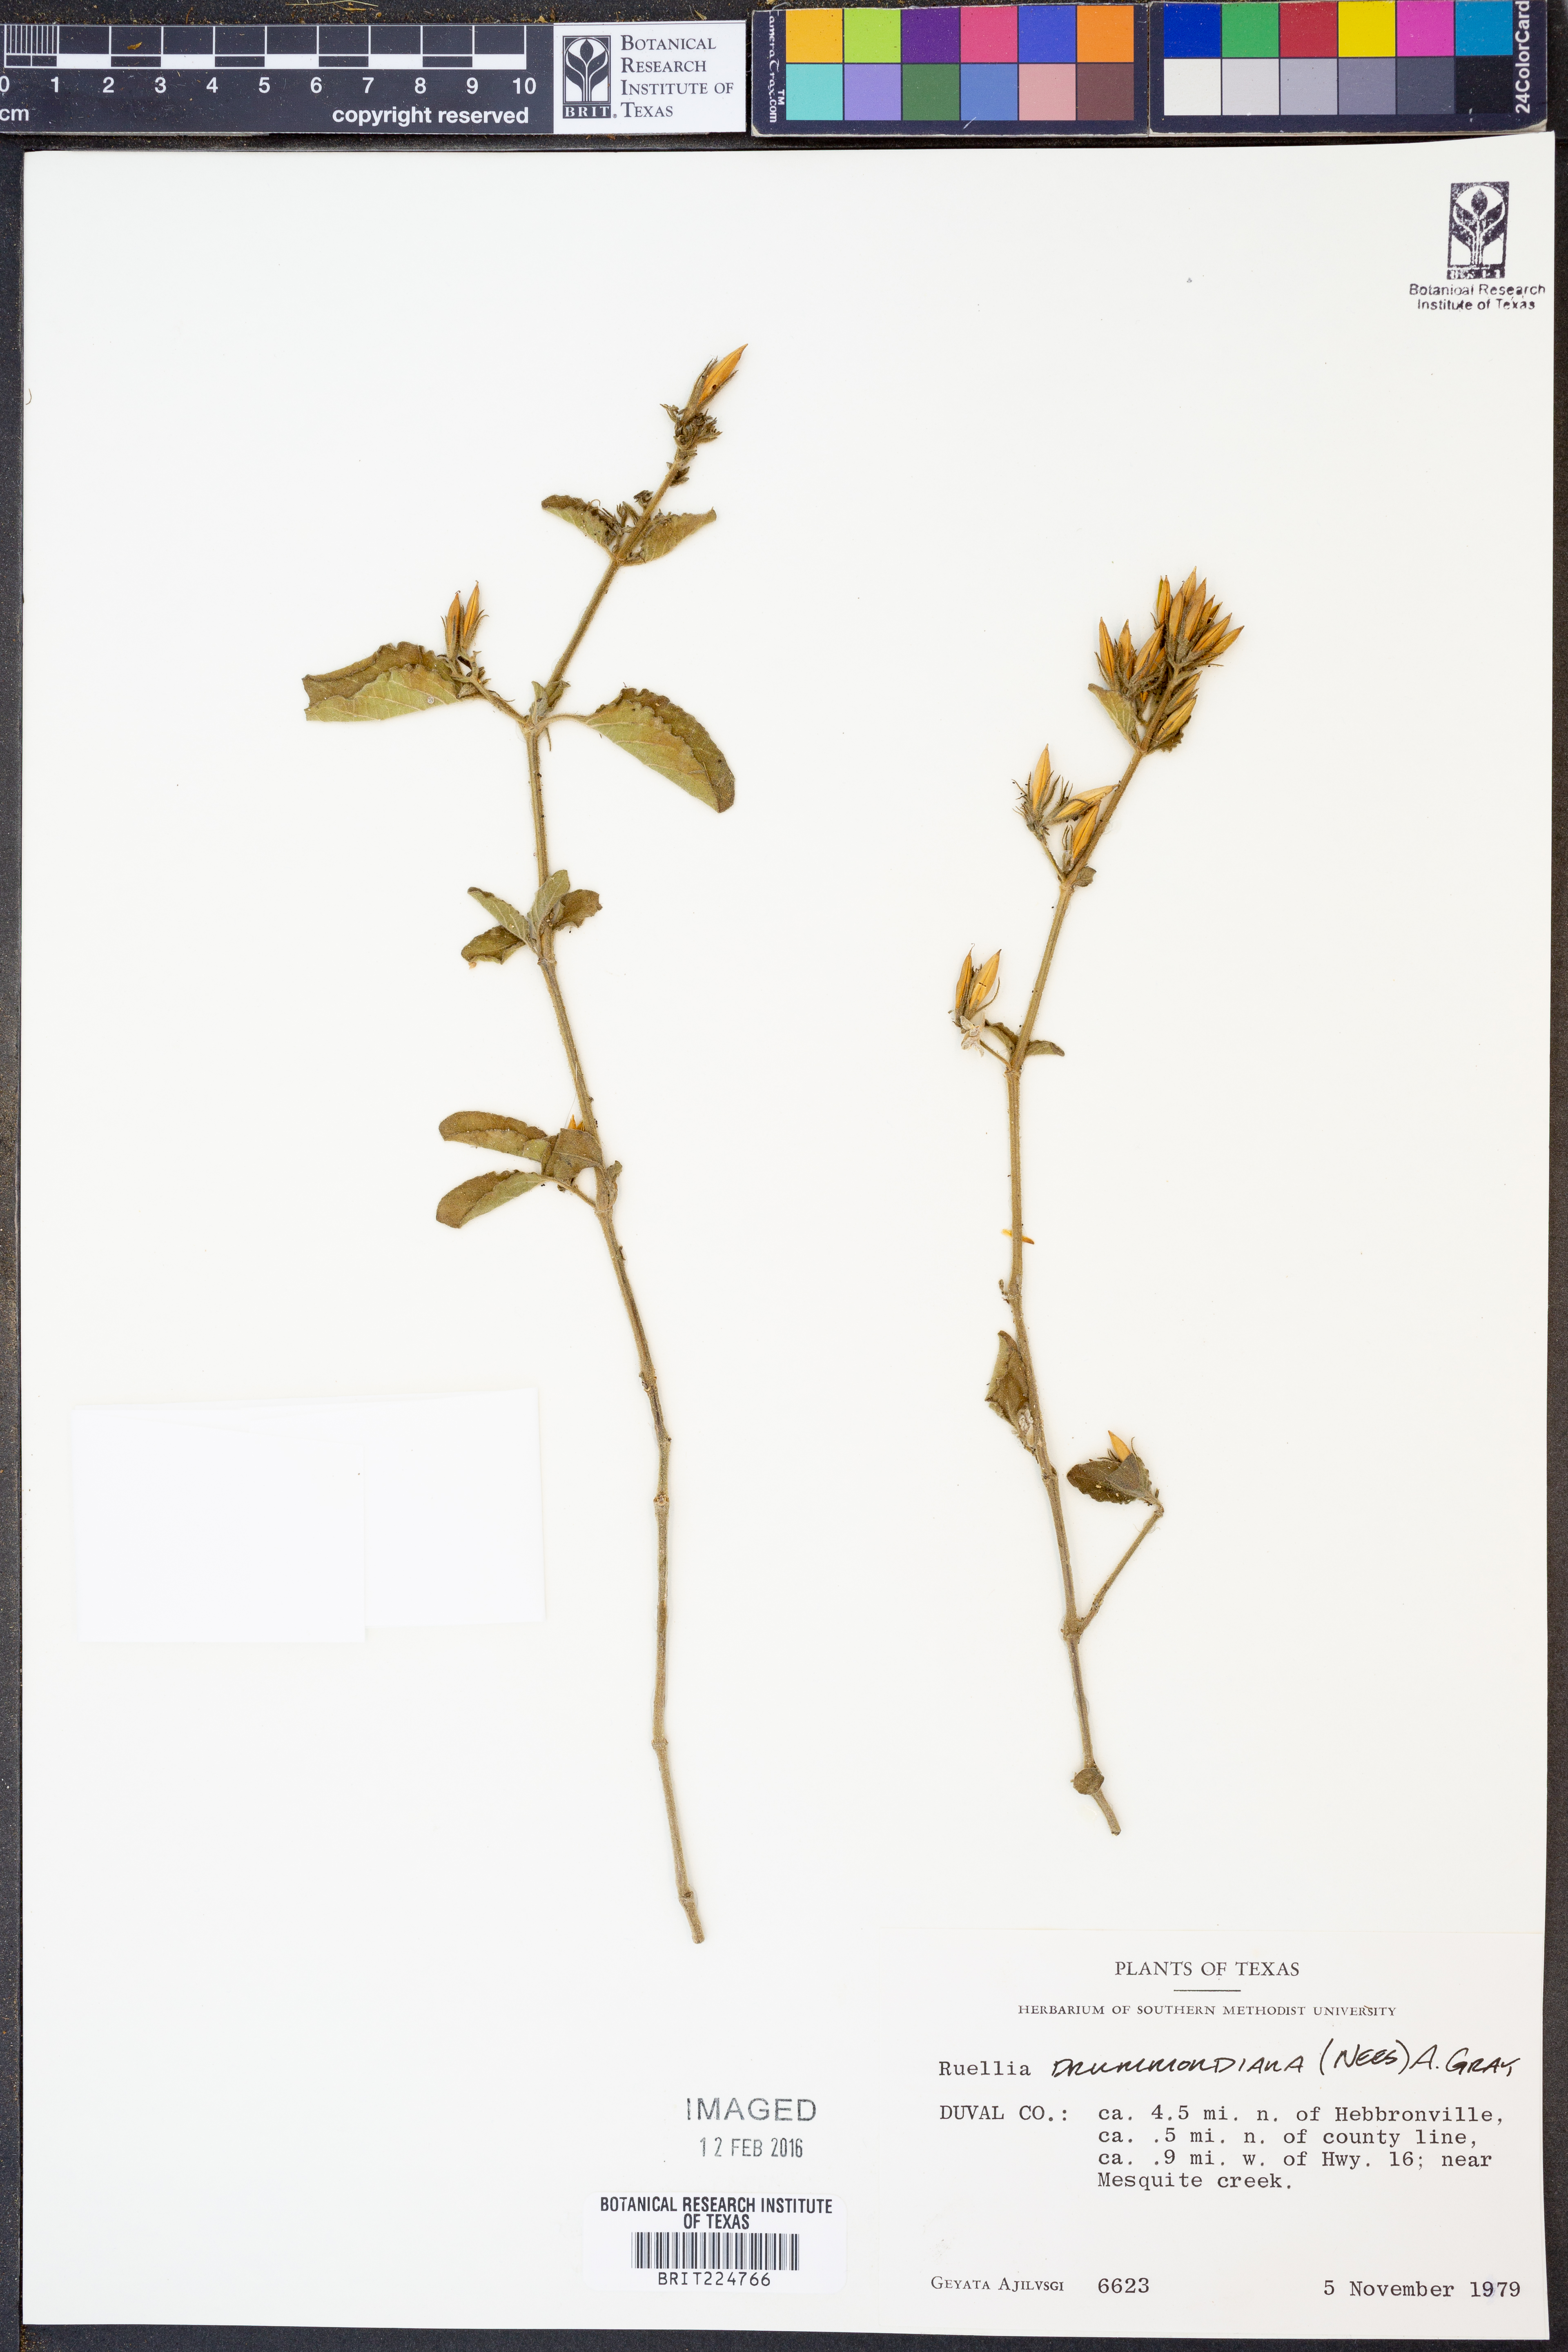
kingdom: Plantae
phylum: Tracheophyta
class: Magnoliopsida
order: Lamiales
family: Acanthaceae
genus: Ruellia
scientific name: Ruellia drummondiana
